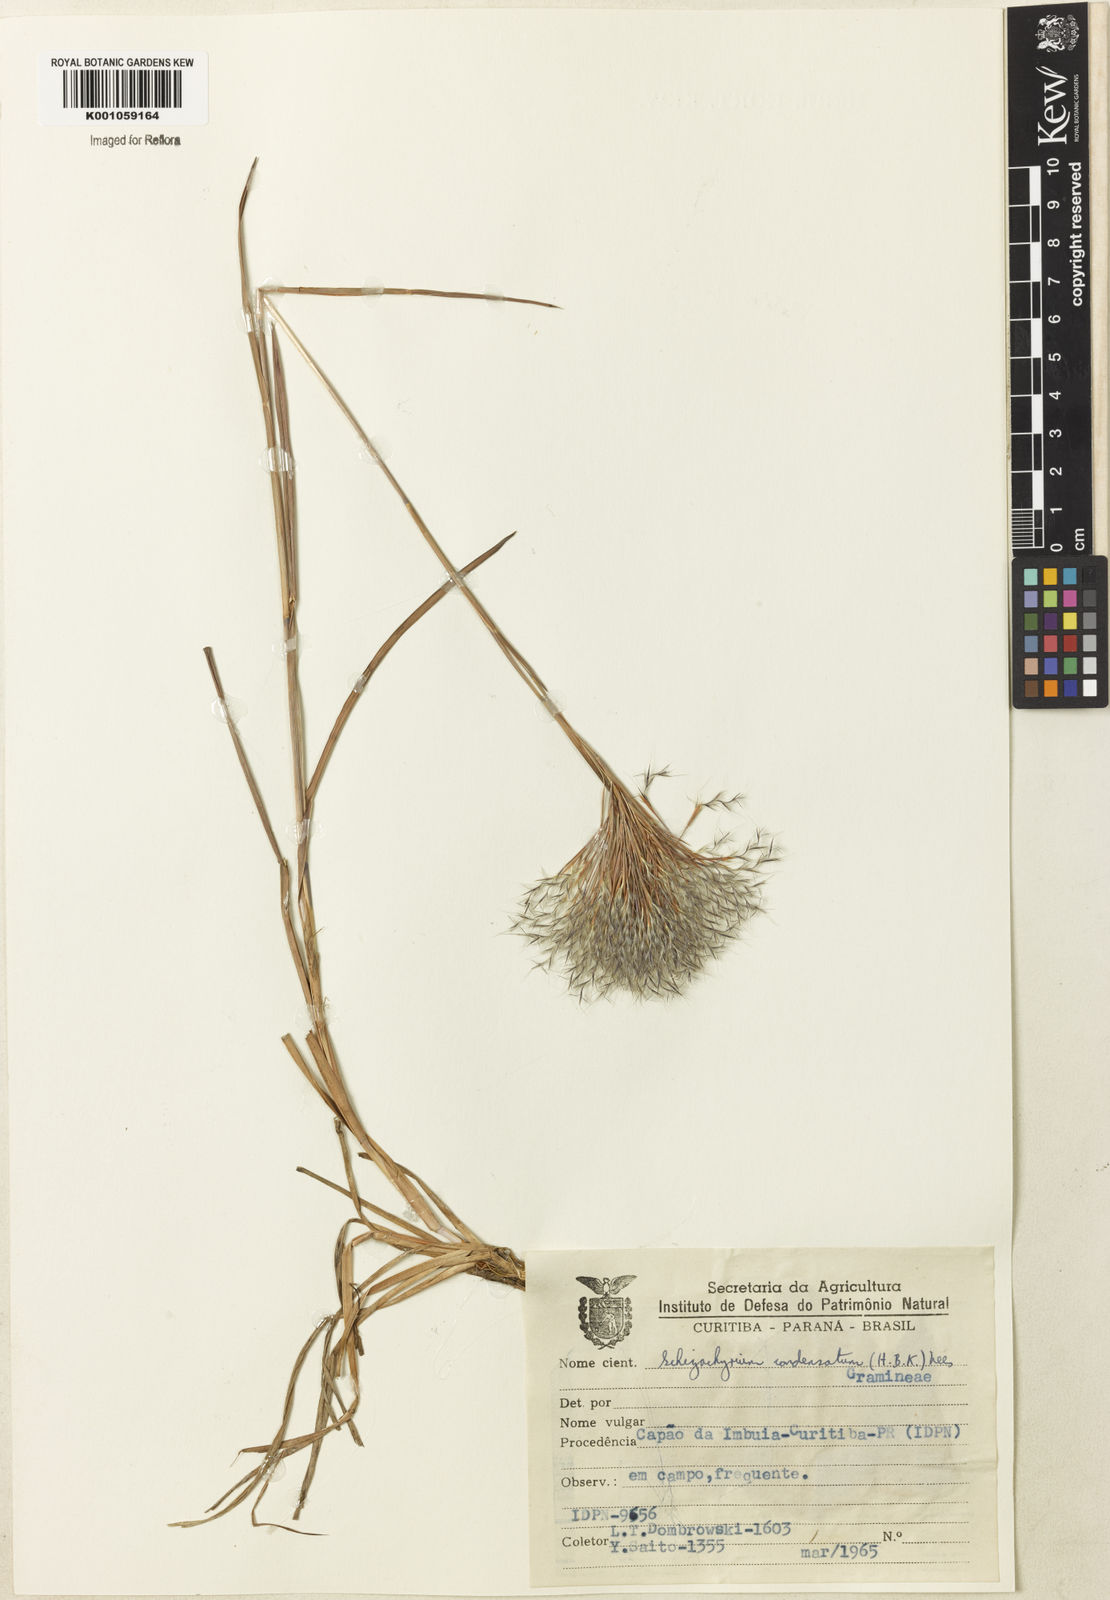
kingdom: Plantae
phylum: Tracheophyta
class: Liliopsida
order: Poales
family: Poaceae
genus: Schizachyrium
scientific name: Schizachyrium condensatum
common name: Bush beardgrass
